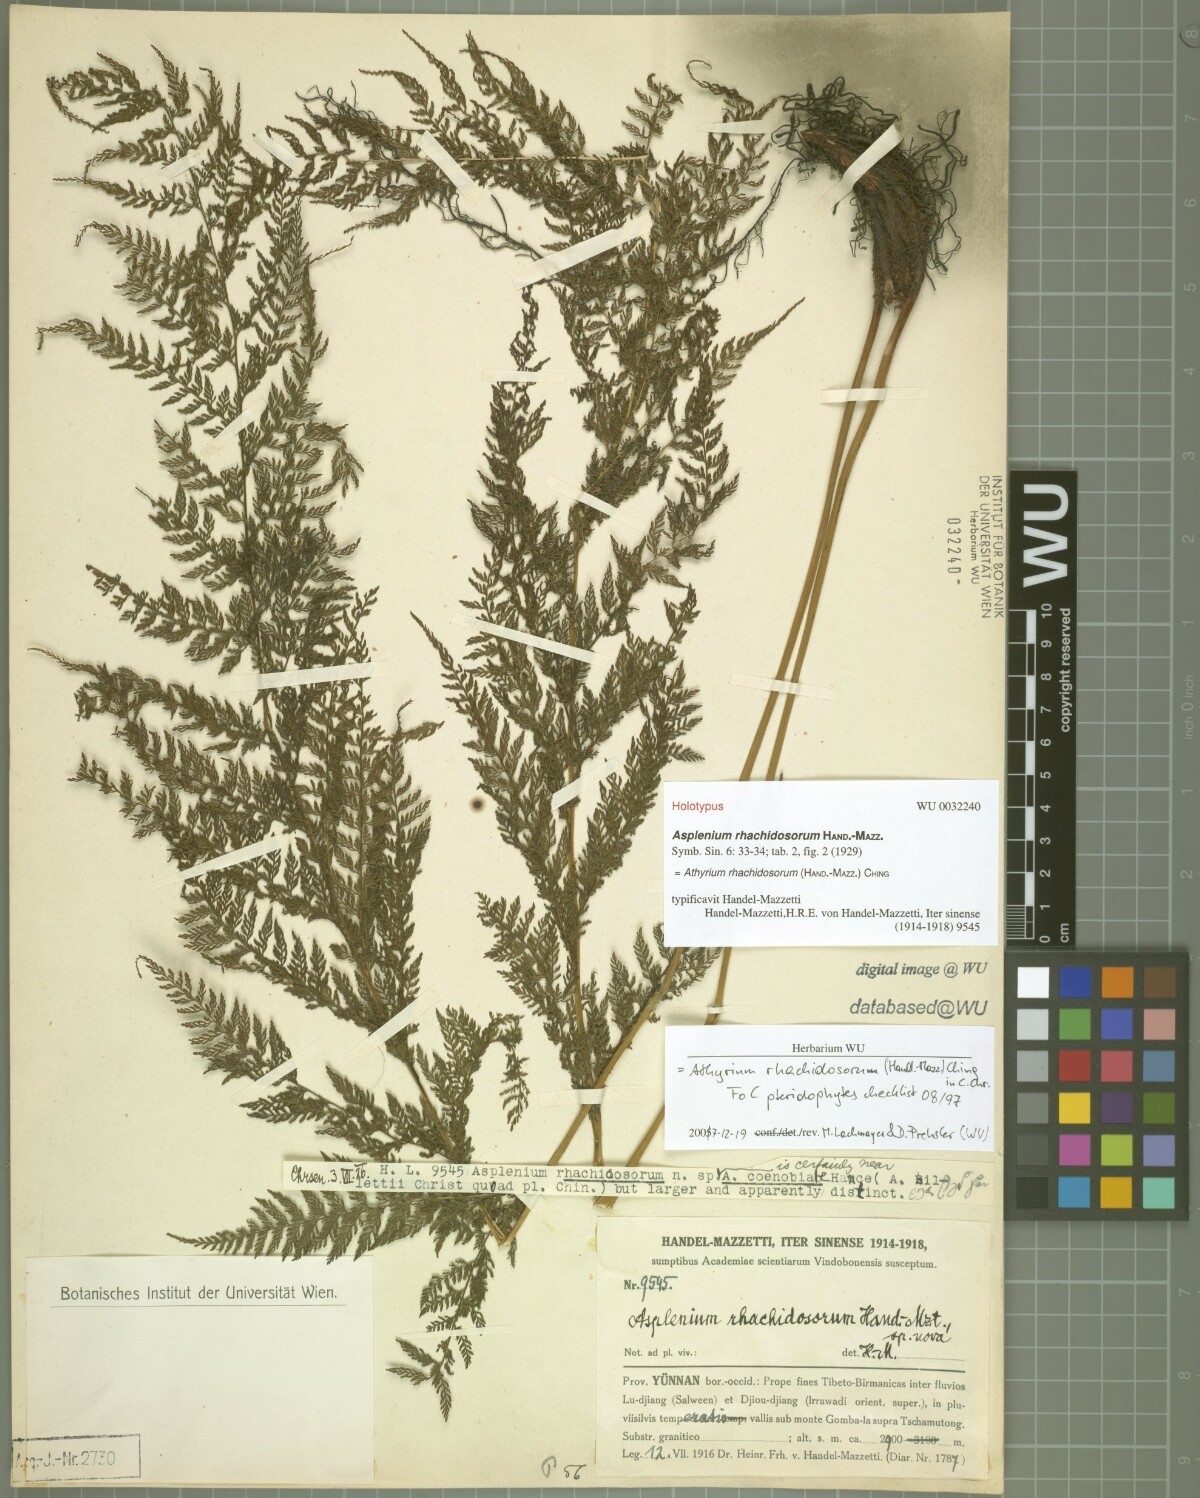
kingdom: Plantae
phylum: Tracheophyta
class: Polypodiopsida
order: Polypodiales
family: Athyriaceae
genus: Athyrium
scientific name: Athyrium rhachidosorum
